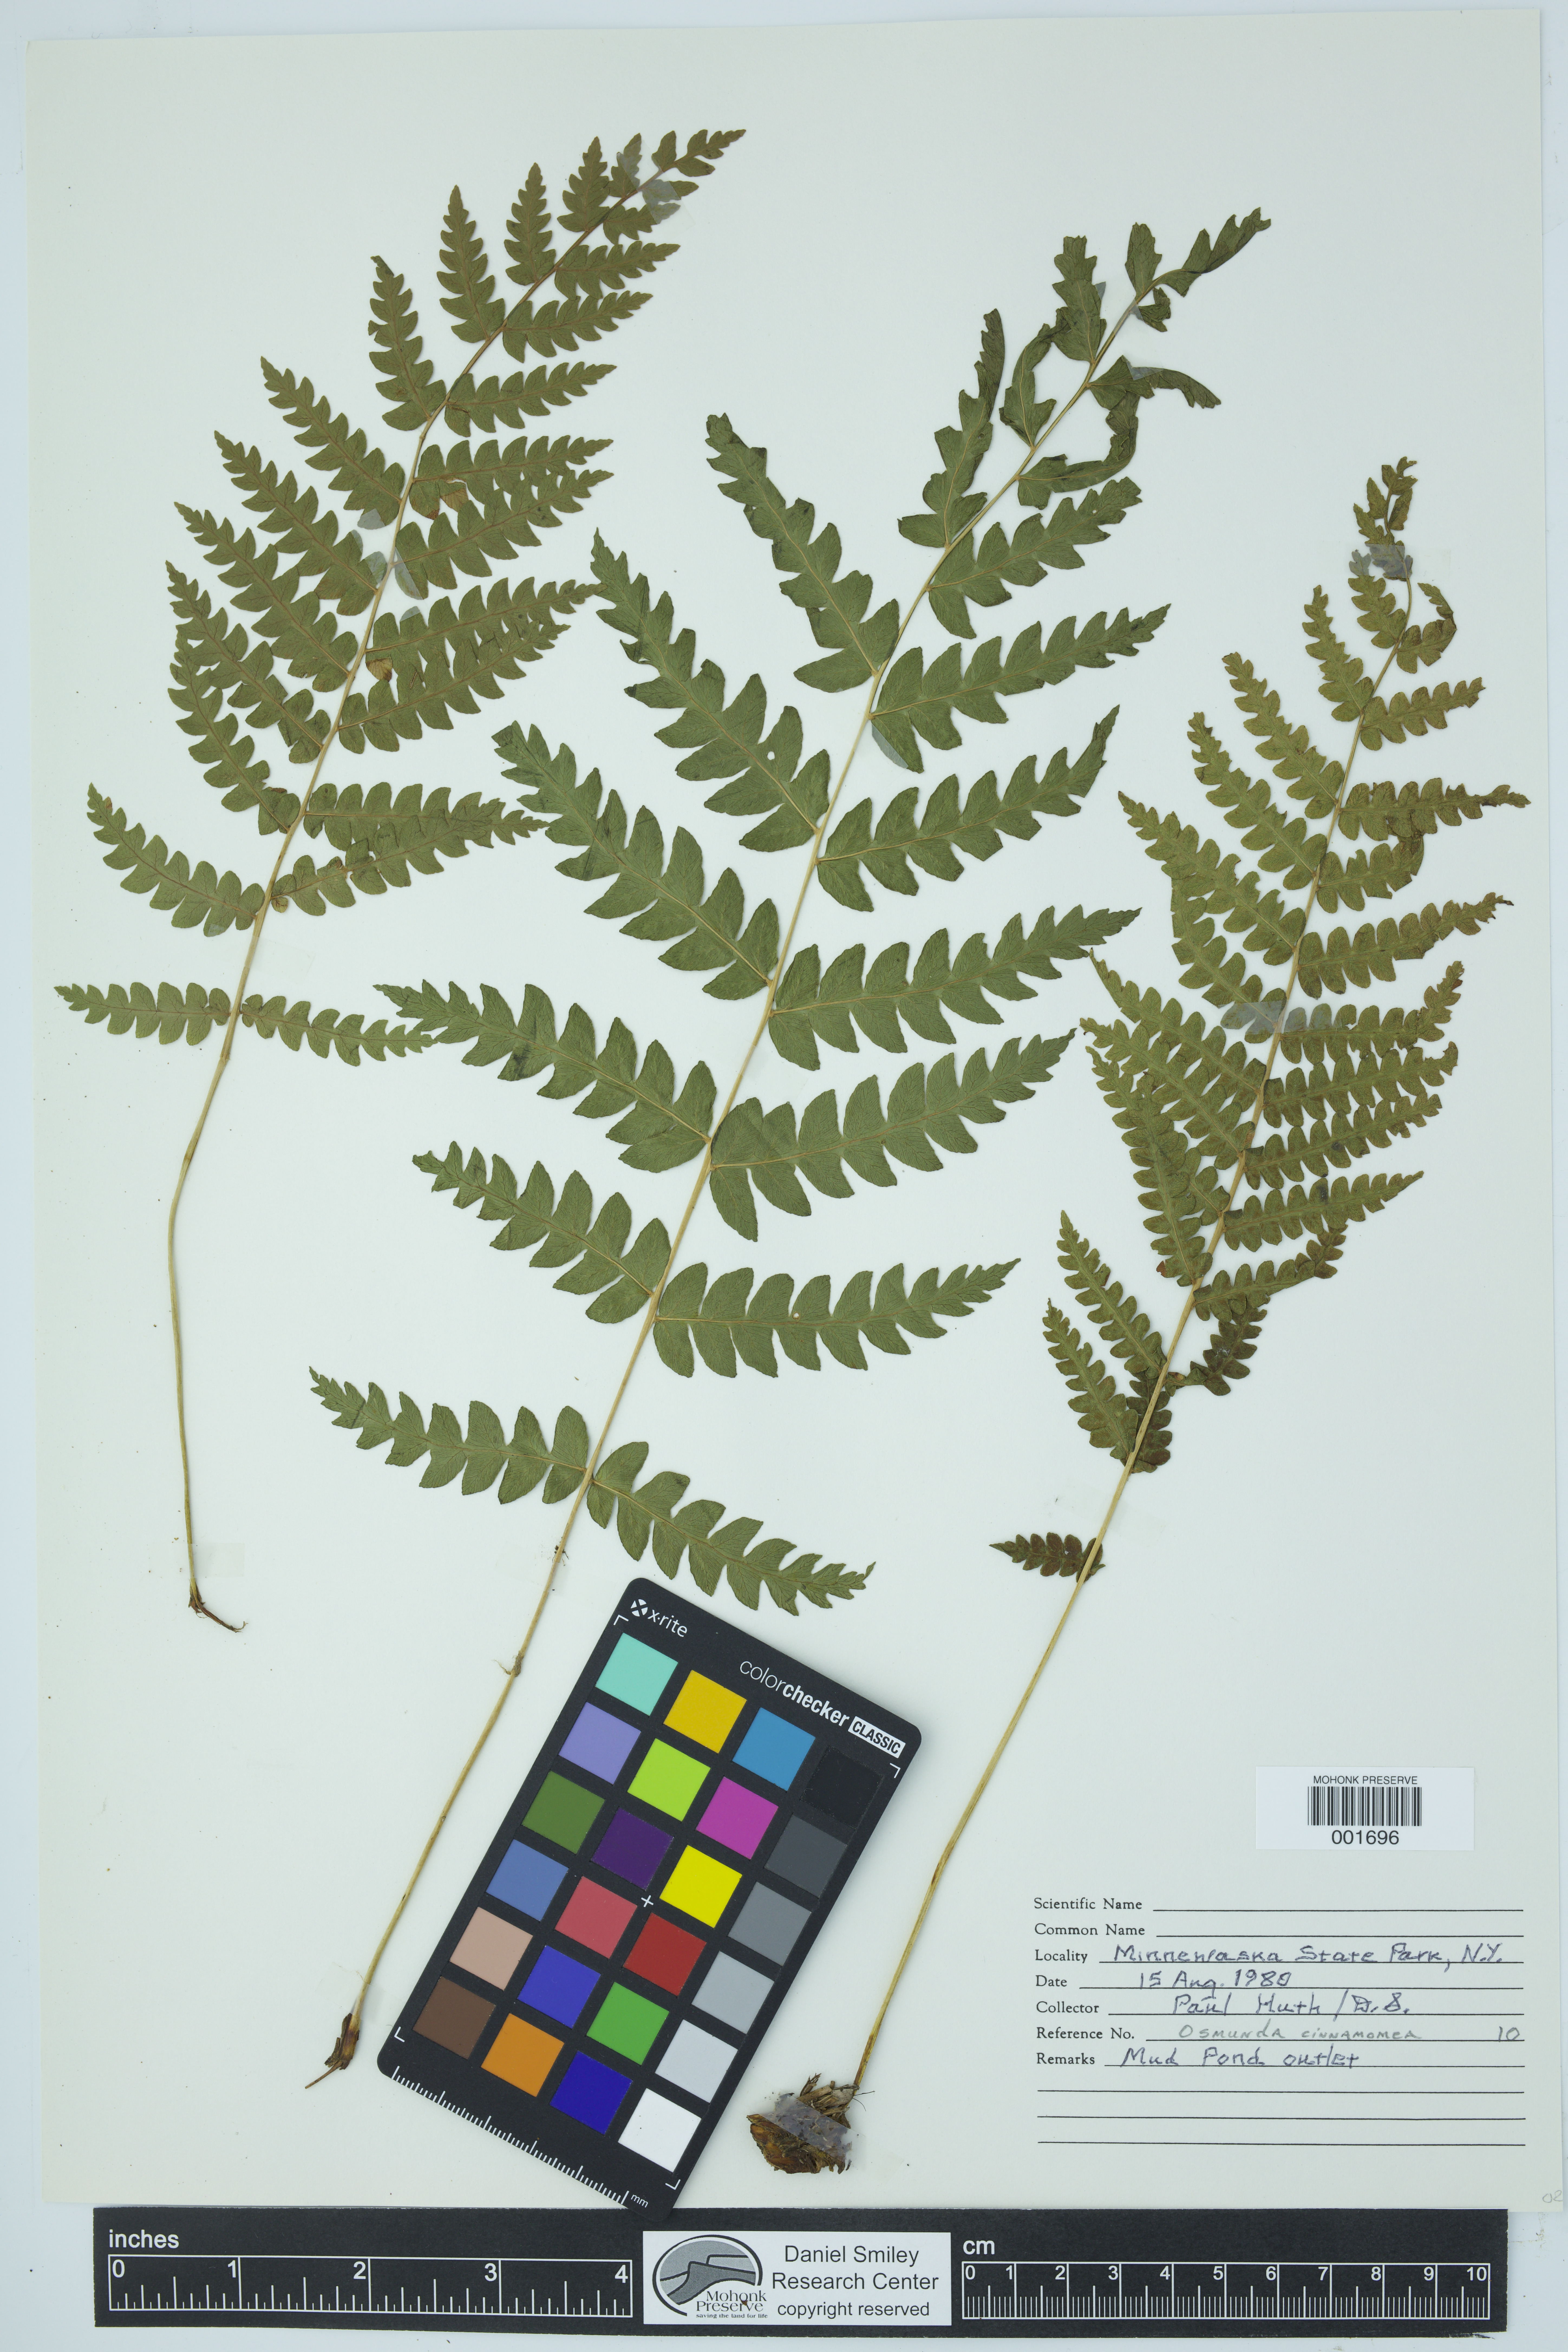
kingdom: Plantae
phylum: Tracheophyta
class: Polypodiopsida
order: Osmundales
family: Osmundaceae
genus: Osmundastrum
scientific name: Osmundastrum cinnamomeum
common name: Cinnamon fern
